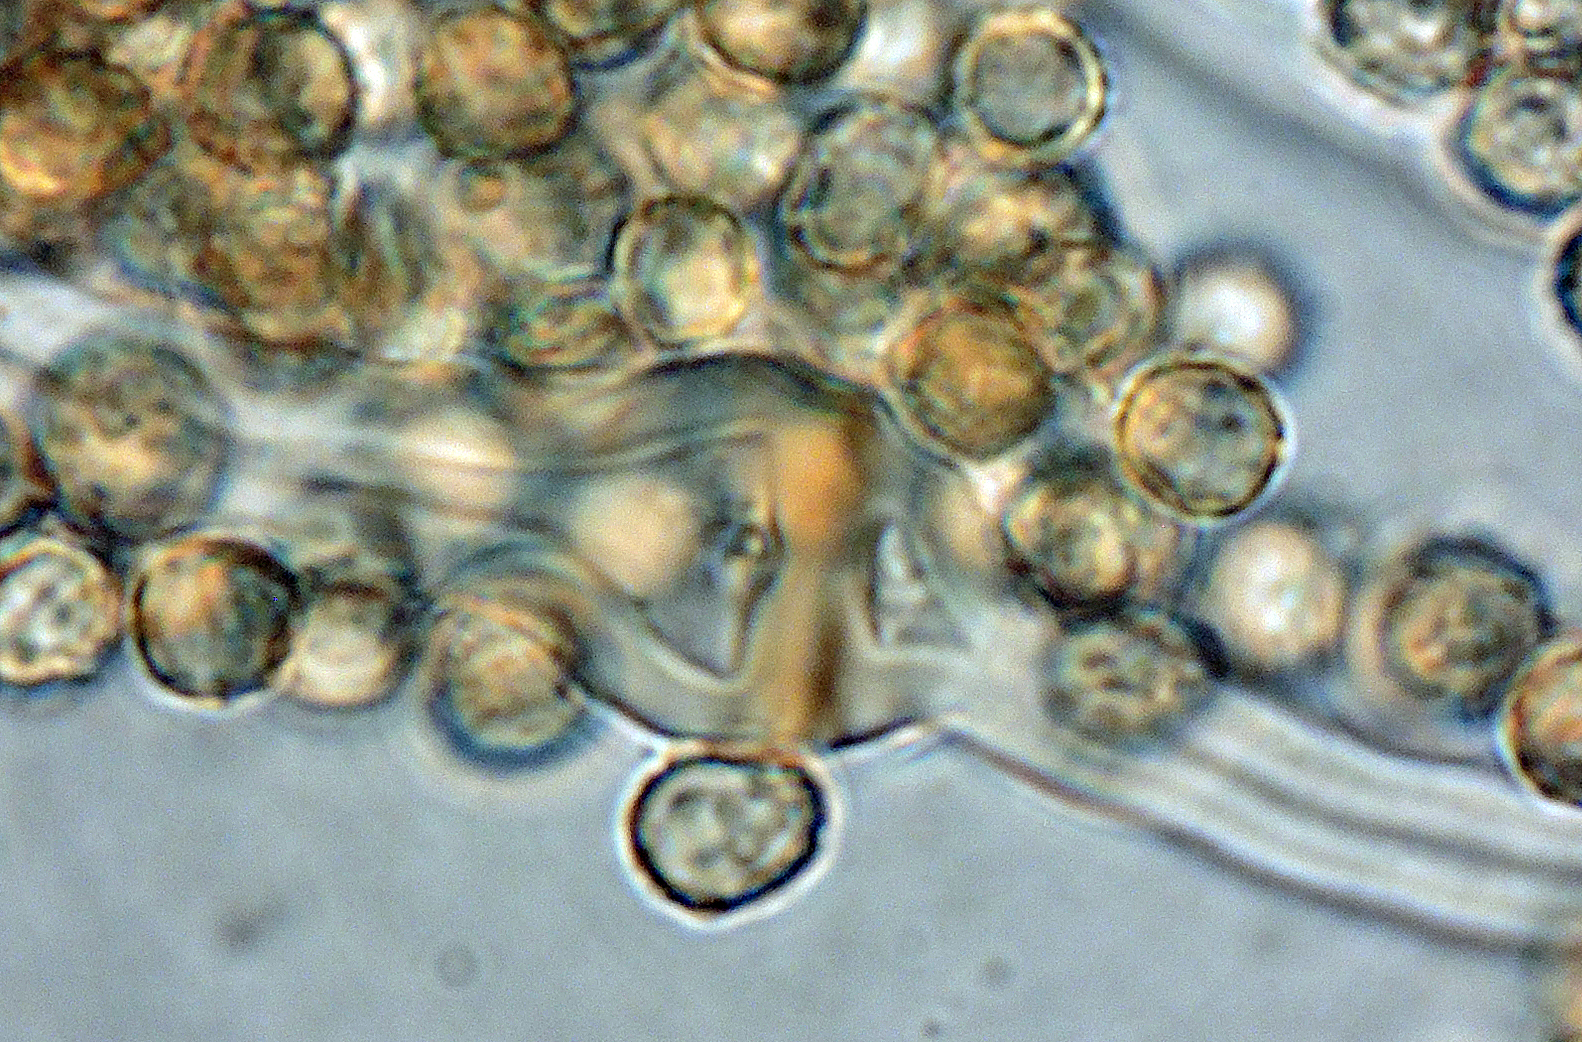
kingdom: Fungi
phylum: Basidiomycota
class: Agaricomycetes
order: Agaricales
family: Agaricaceae
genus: Tulostoma
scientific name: Tulostoma brumale
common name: vinter-stilkbovist
